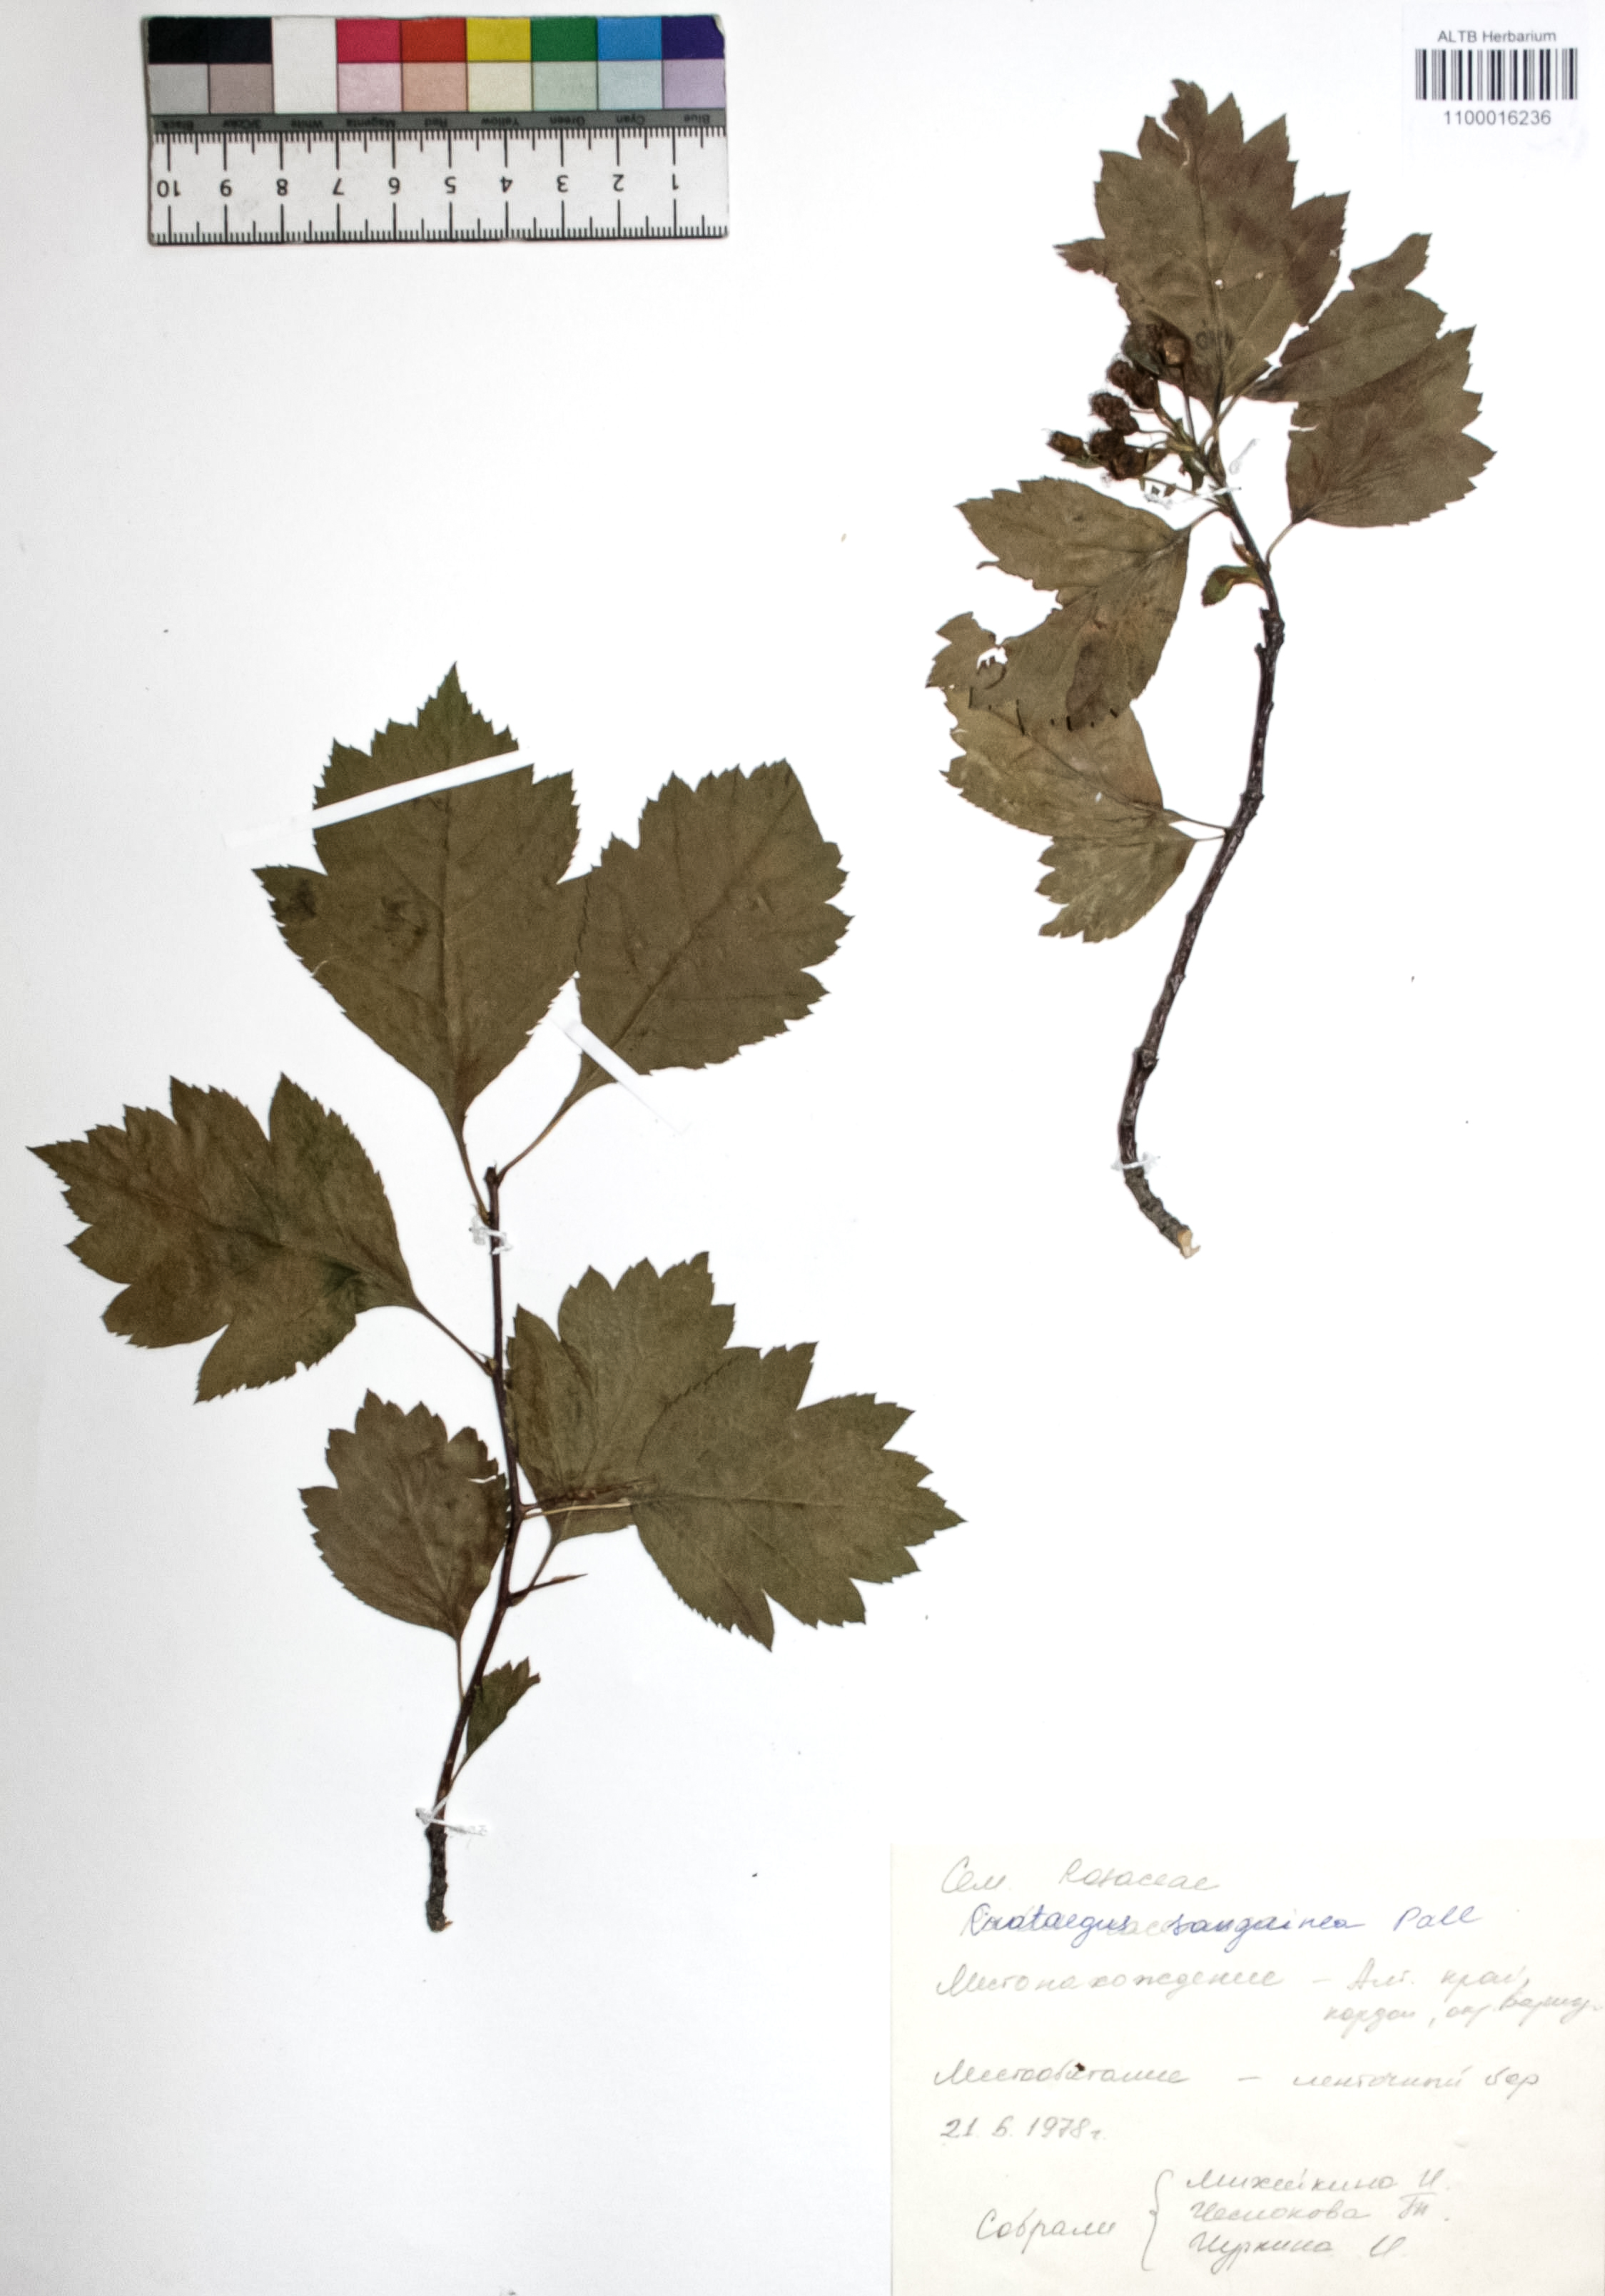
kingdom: Plantae
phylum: Tracheophyta
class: Magnoliopsida
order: Rosales
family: Rosaceae
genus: Crataegus
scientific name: Crataegus sanguinea
